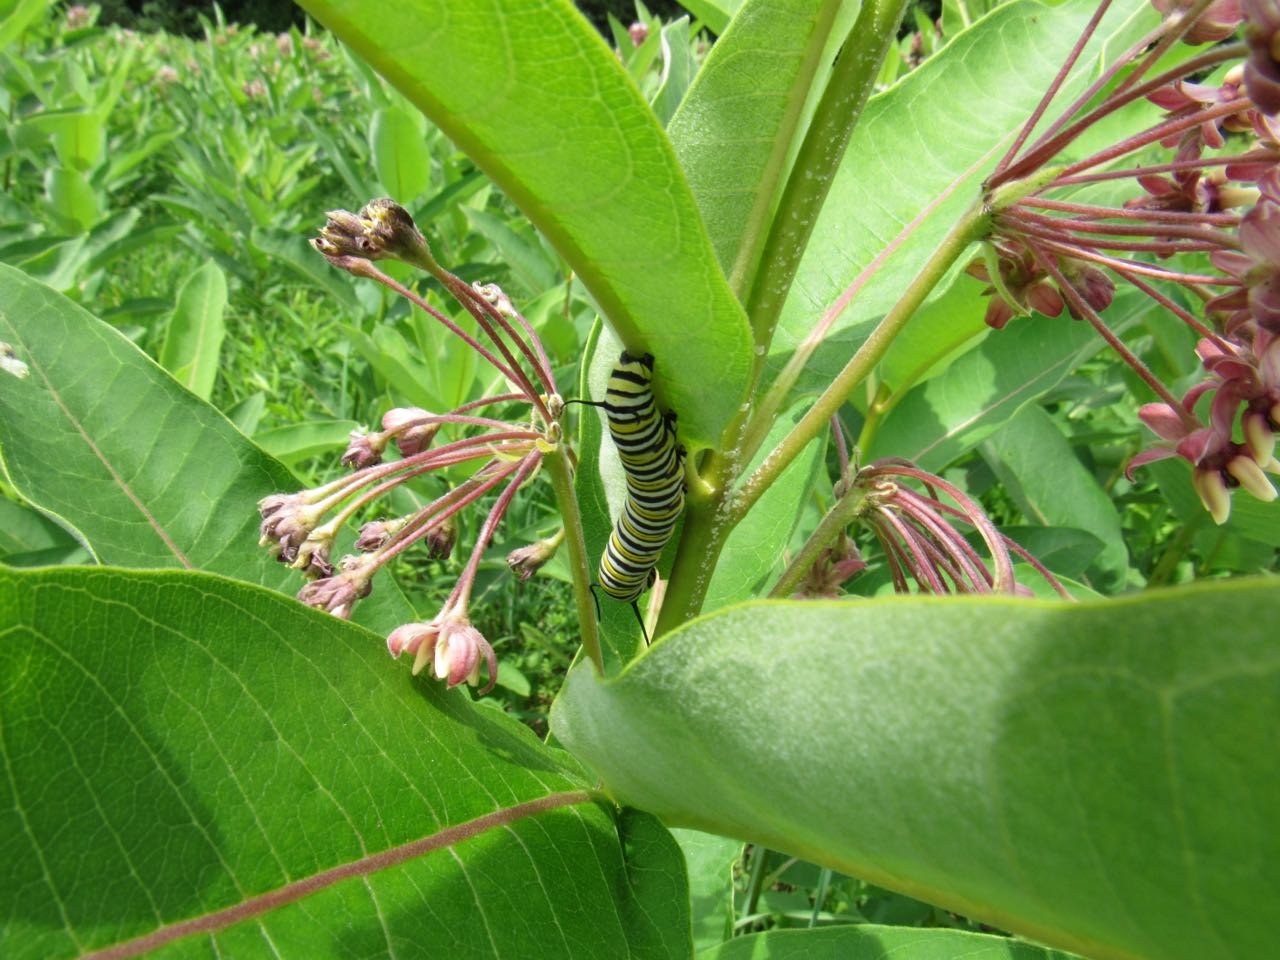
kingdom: Animalia
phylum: Arthropoda
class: Insecta
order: Lepidoptera
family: Nymphalidae
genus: Danaus
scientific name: Danaus plexippus
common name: Monarch
